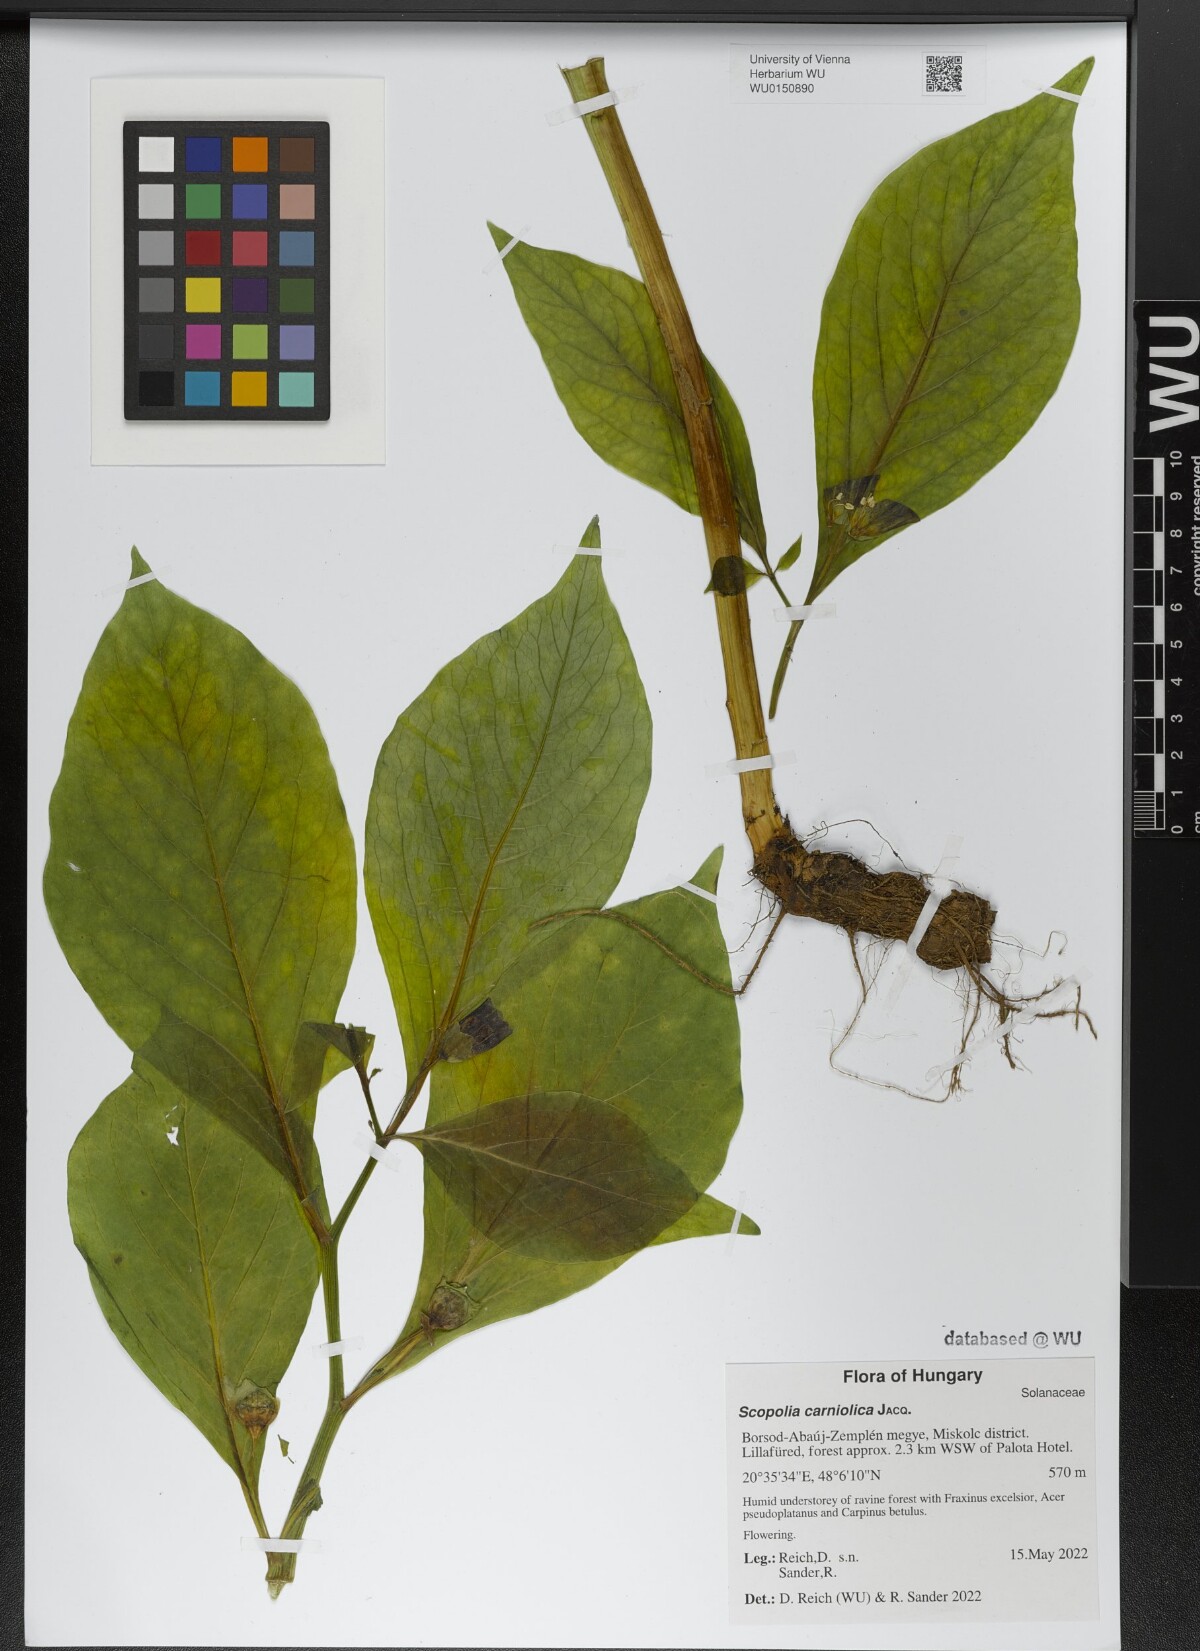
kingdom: Plantae
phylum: Tracheophyta
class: Magnoliopsida
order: Solanales
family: Solanaceae
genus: Scopolia
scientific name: Scopolia carniolica
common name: Scopolia
